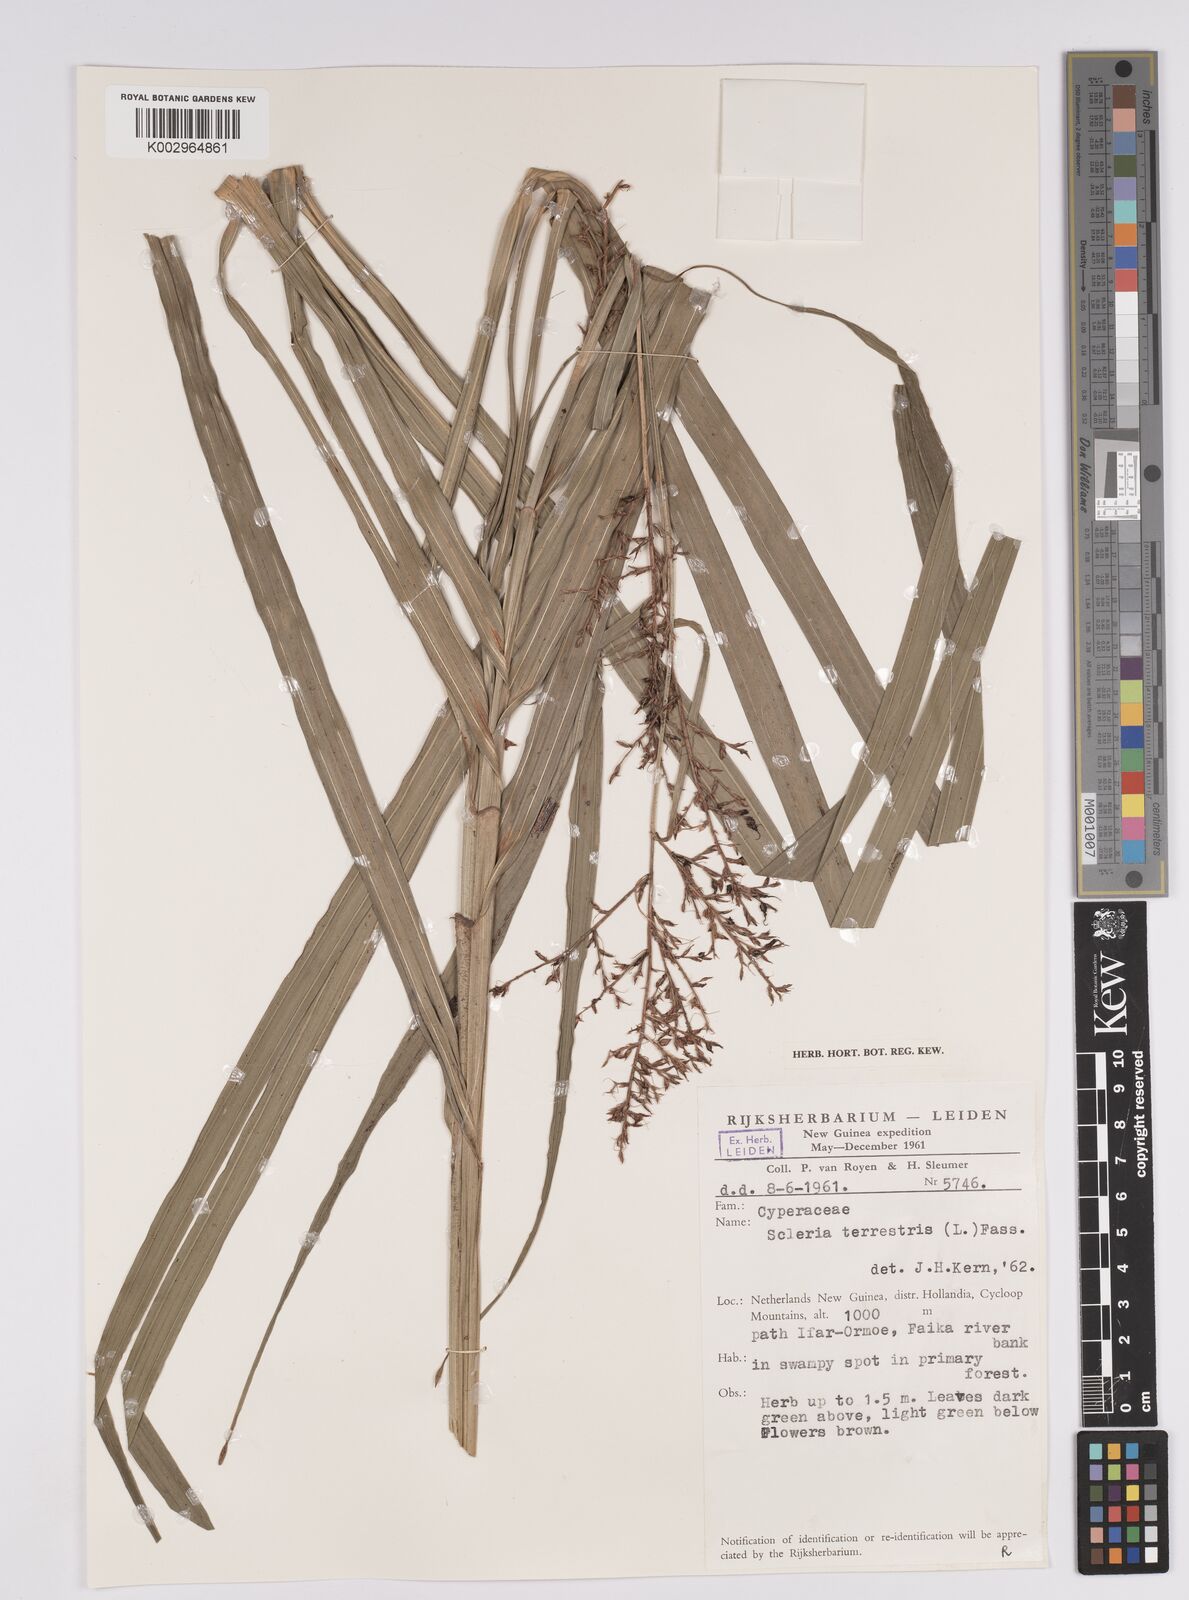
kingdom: Plantae
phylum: Tracheophyta
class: Liliopsida
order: Poales
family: Cyperaceae
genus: Scleria
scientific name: Scleria terrestris
